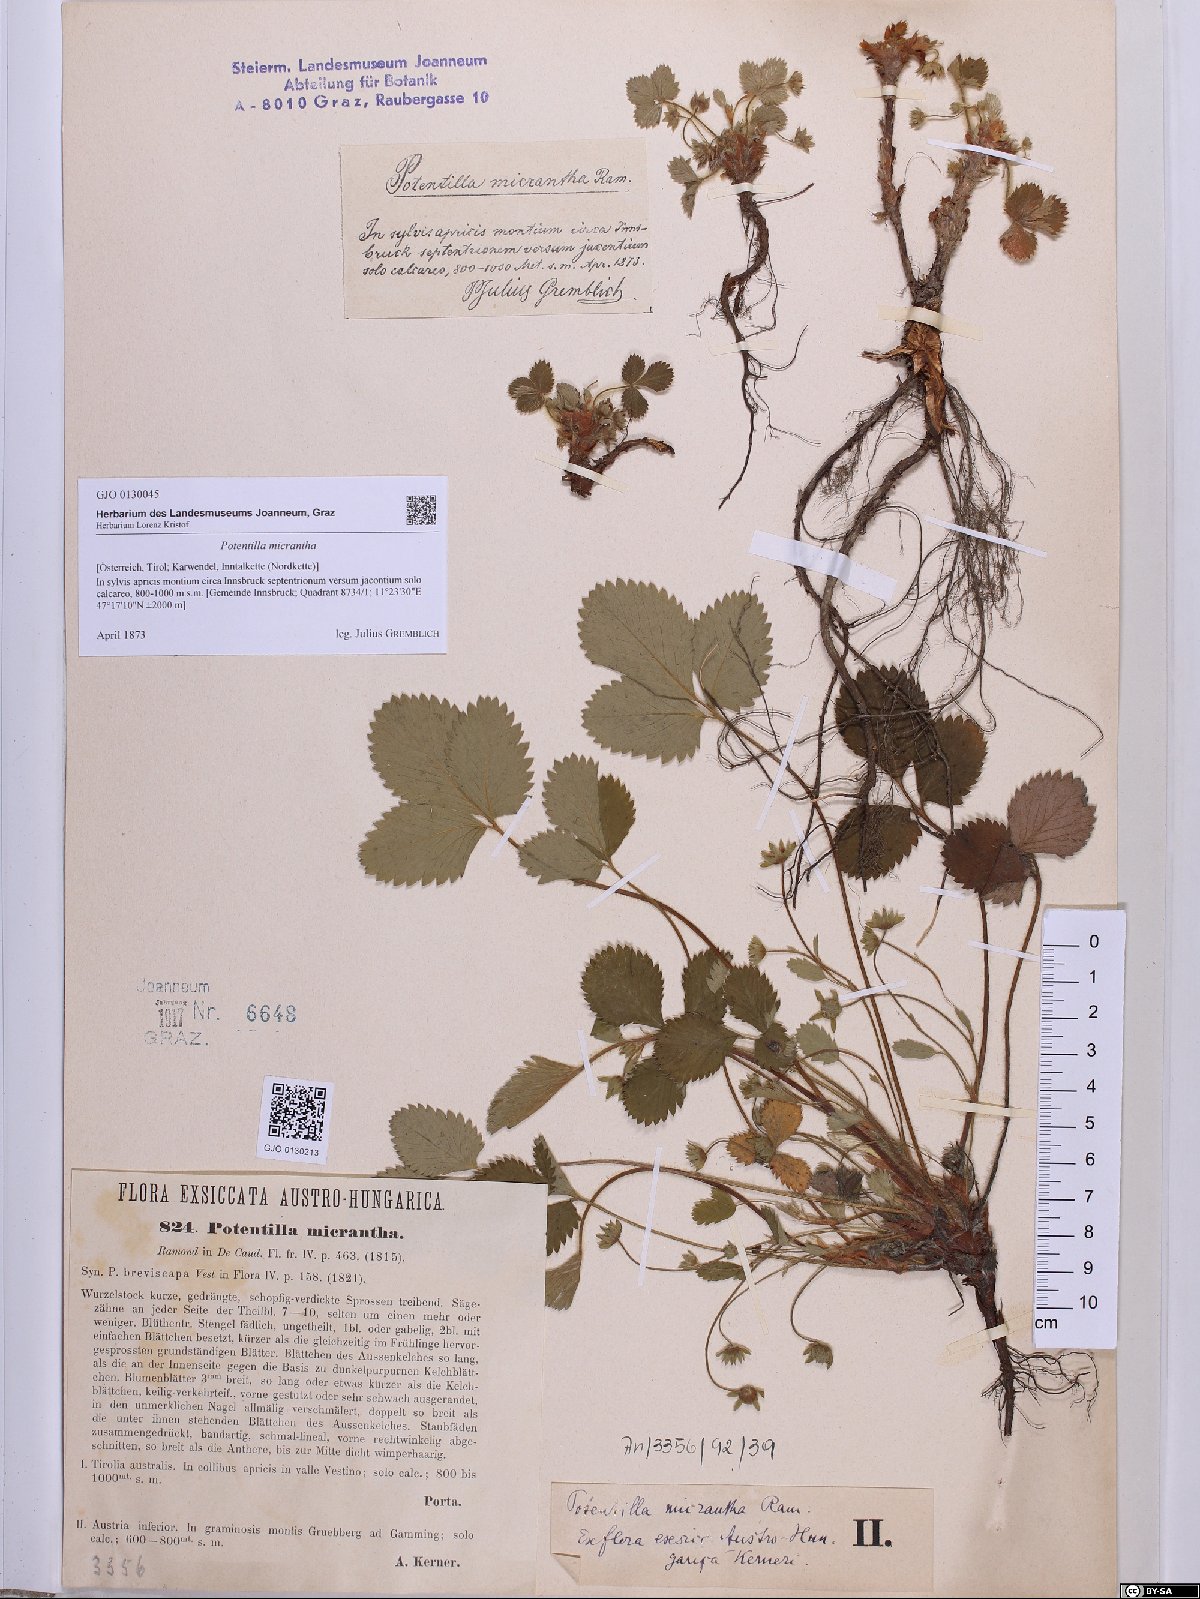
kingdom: Plantae
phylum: Tracheophyta
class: Magnoliopsida
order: Rosales
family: Rosaceae
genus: Potentilla
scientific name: Potentilla micrantha
